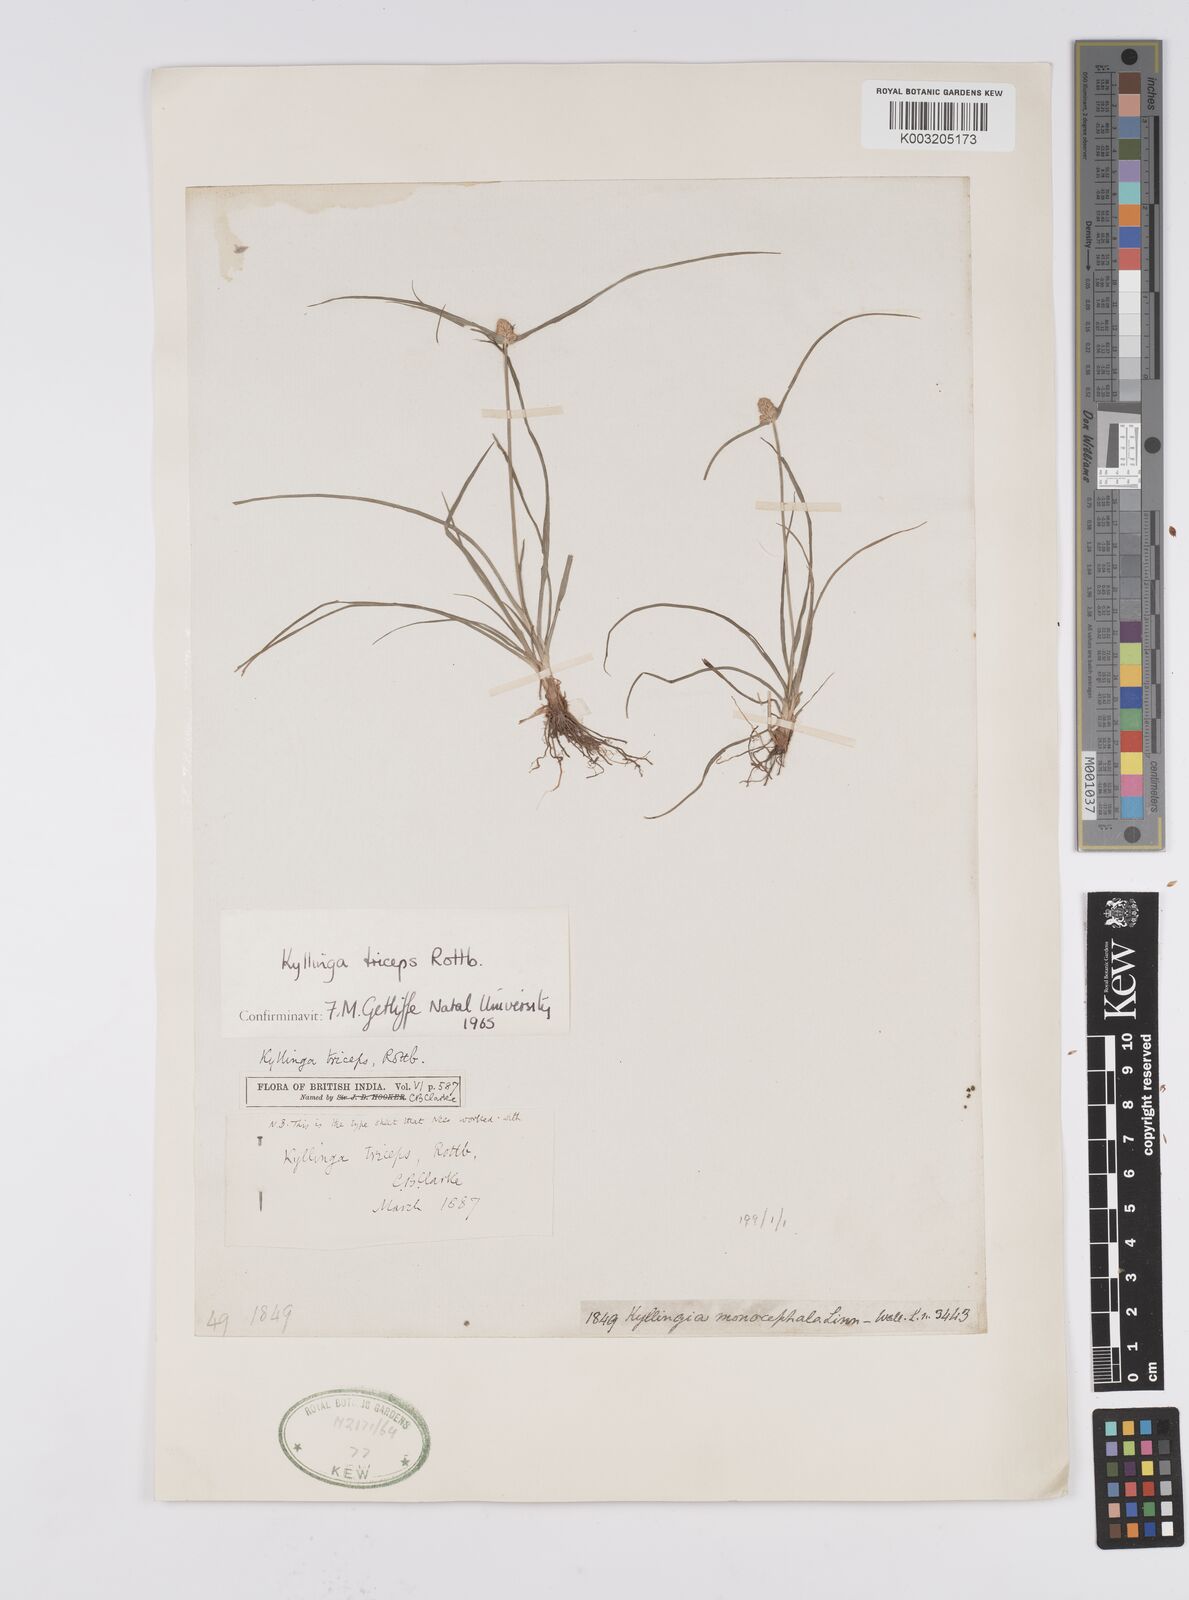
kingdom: Plantae
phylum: Tracheophyta
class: Liliopsida
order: Poales
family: Cyperaceae
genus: Cyperus
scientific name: Cyperus
